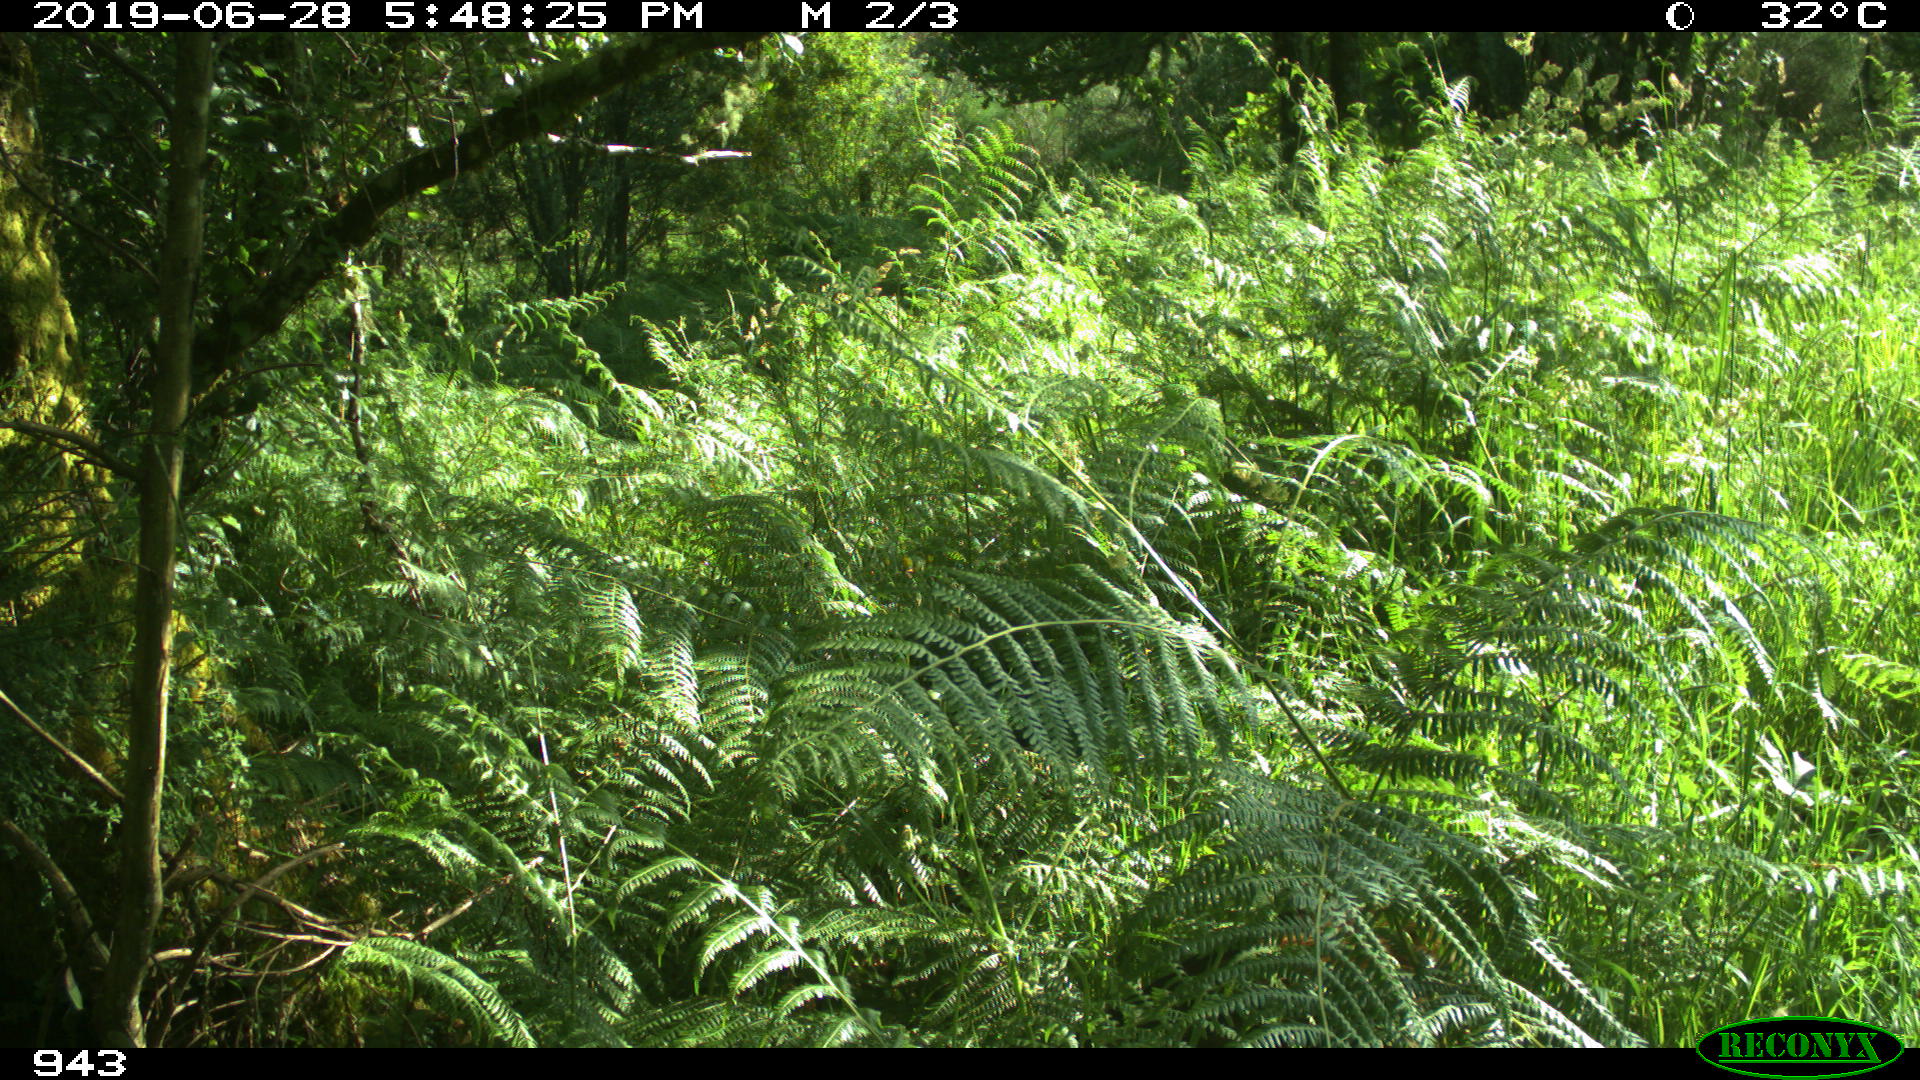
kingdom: Animalia
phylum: Chordata
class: Mammalia
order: Artiodactyla
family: Suidae
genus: Sus
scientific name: Sus scrofa
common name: Wild boar
